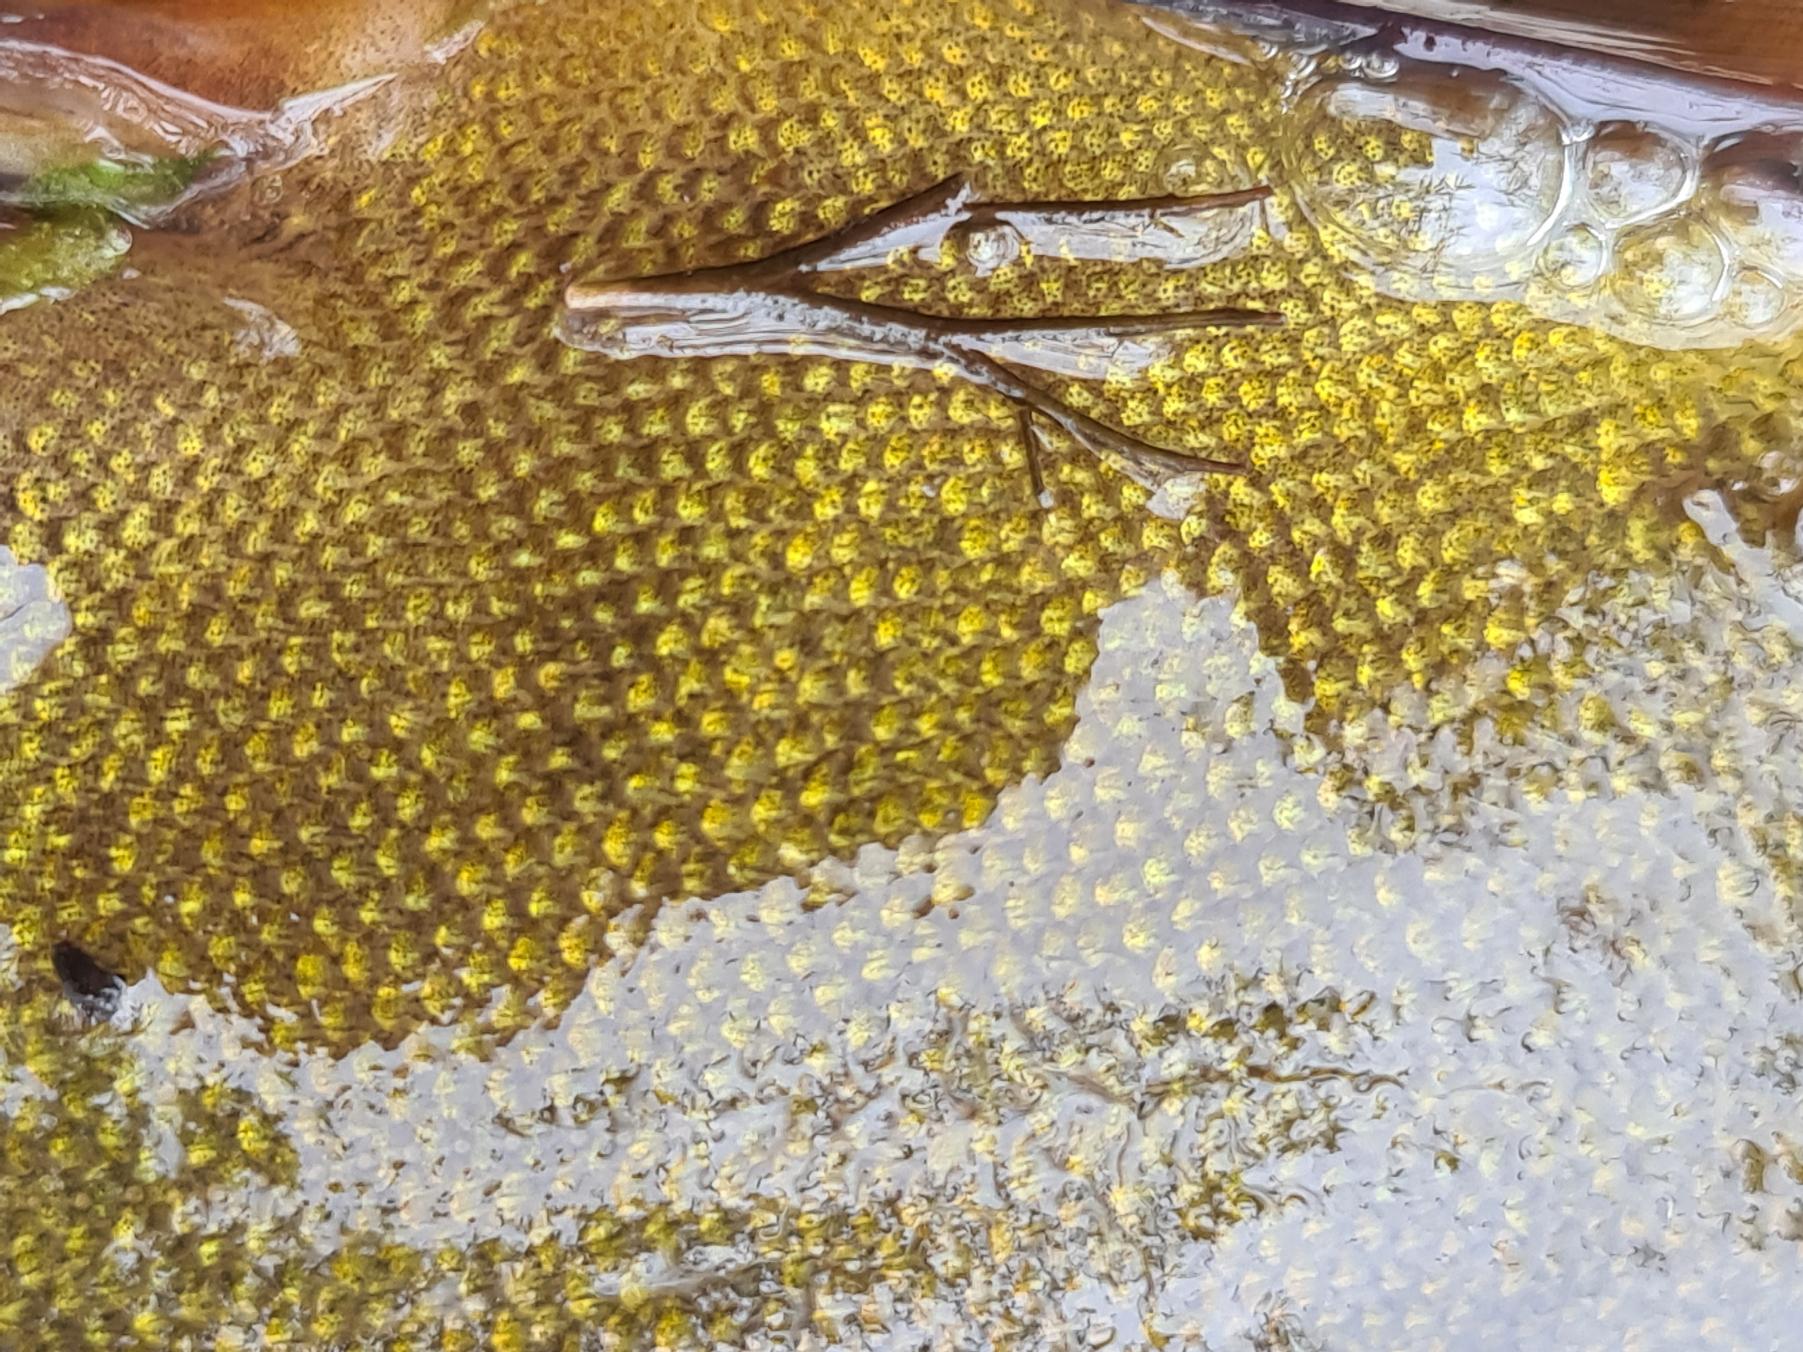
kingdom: Animalia
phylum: Chordata
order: Cypriniformes
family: Cyprinidae
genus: Tinca
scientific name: Tinca tinca
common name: Suder
